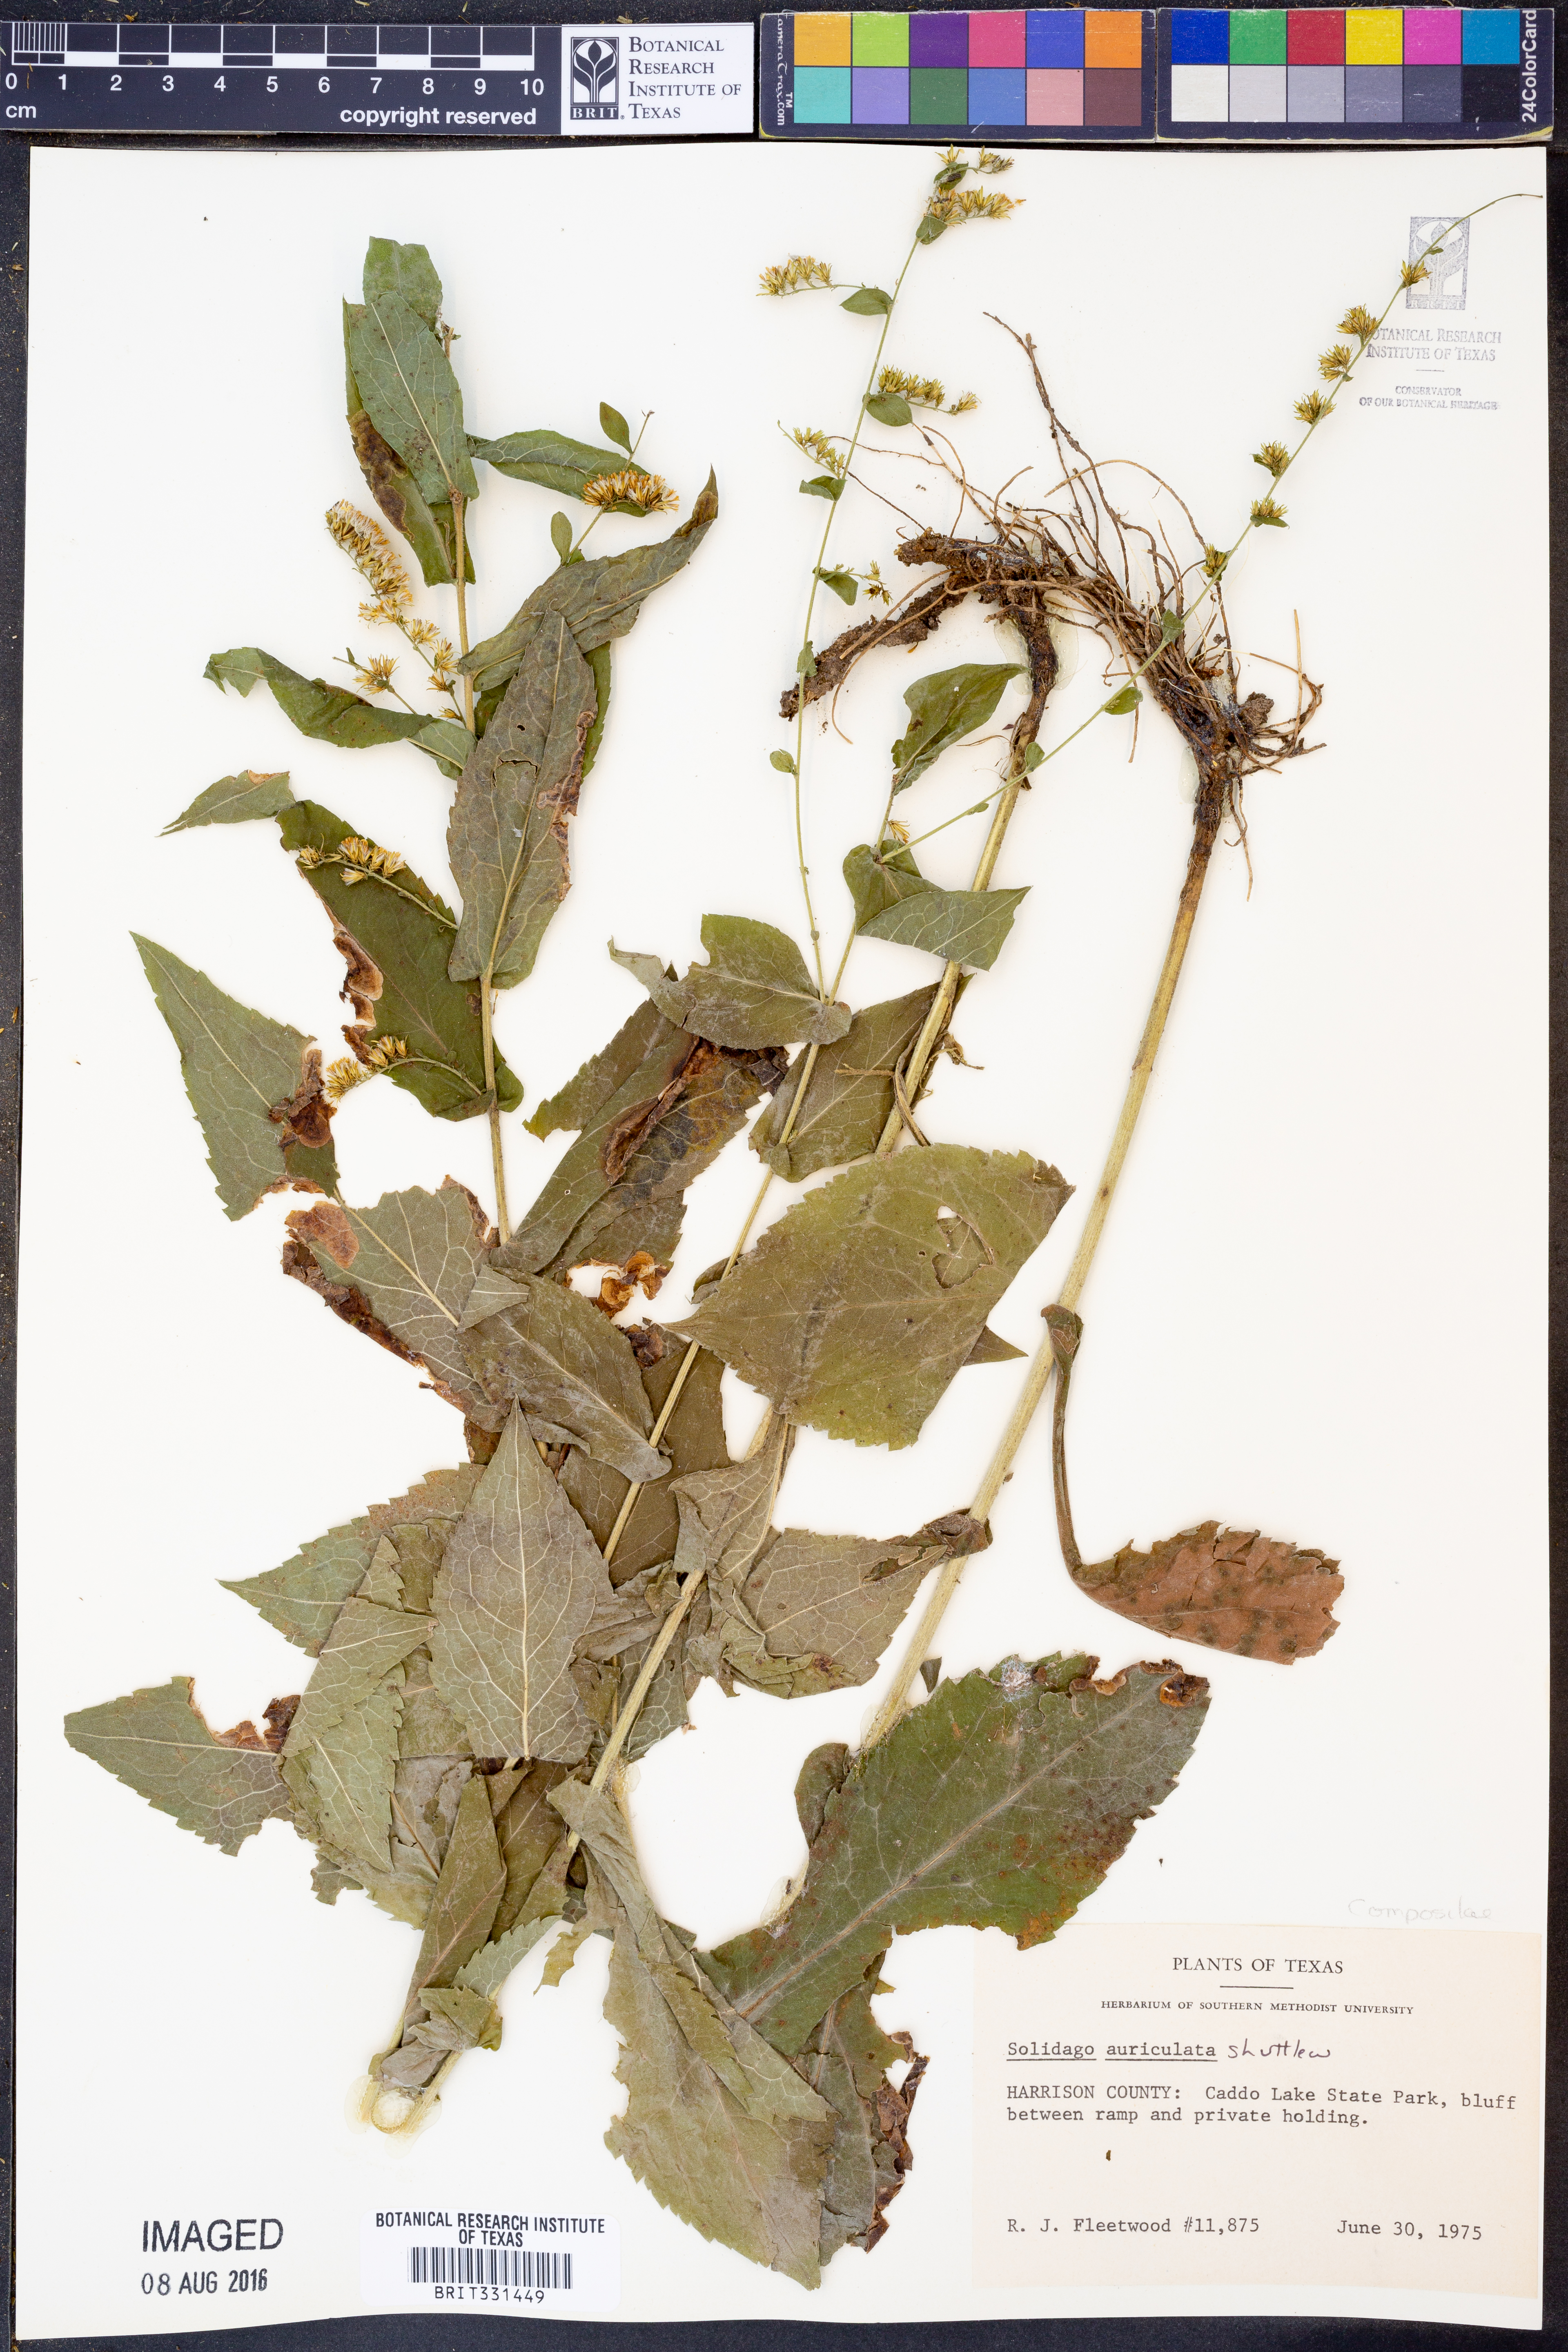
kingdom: Plantae
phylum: Tracheophyta
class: Magnoliopsida
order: Asterales
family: Asteraceae
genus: Solidago
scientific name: Solidago auriculata
